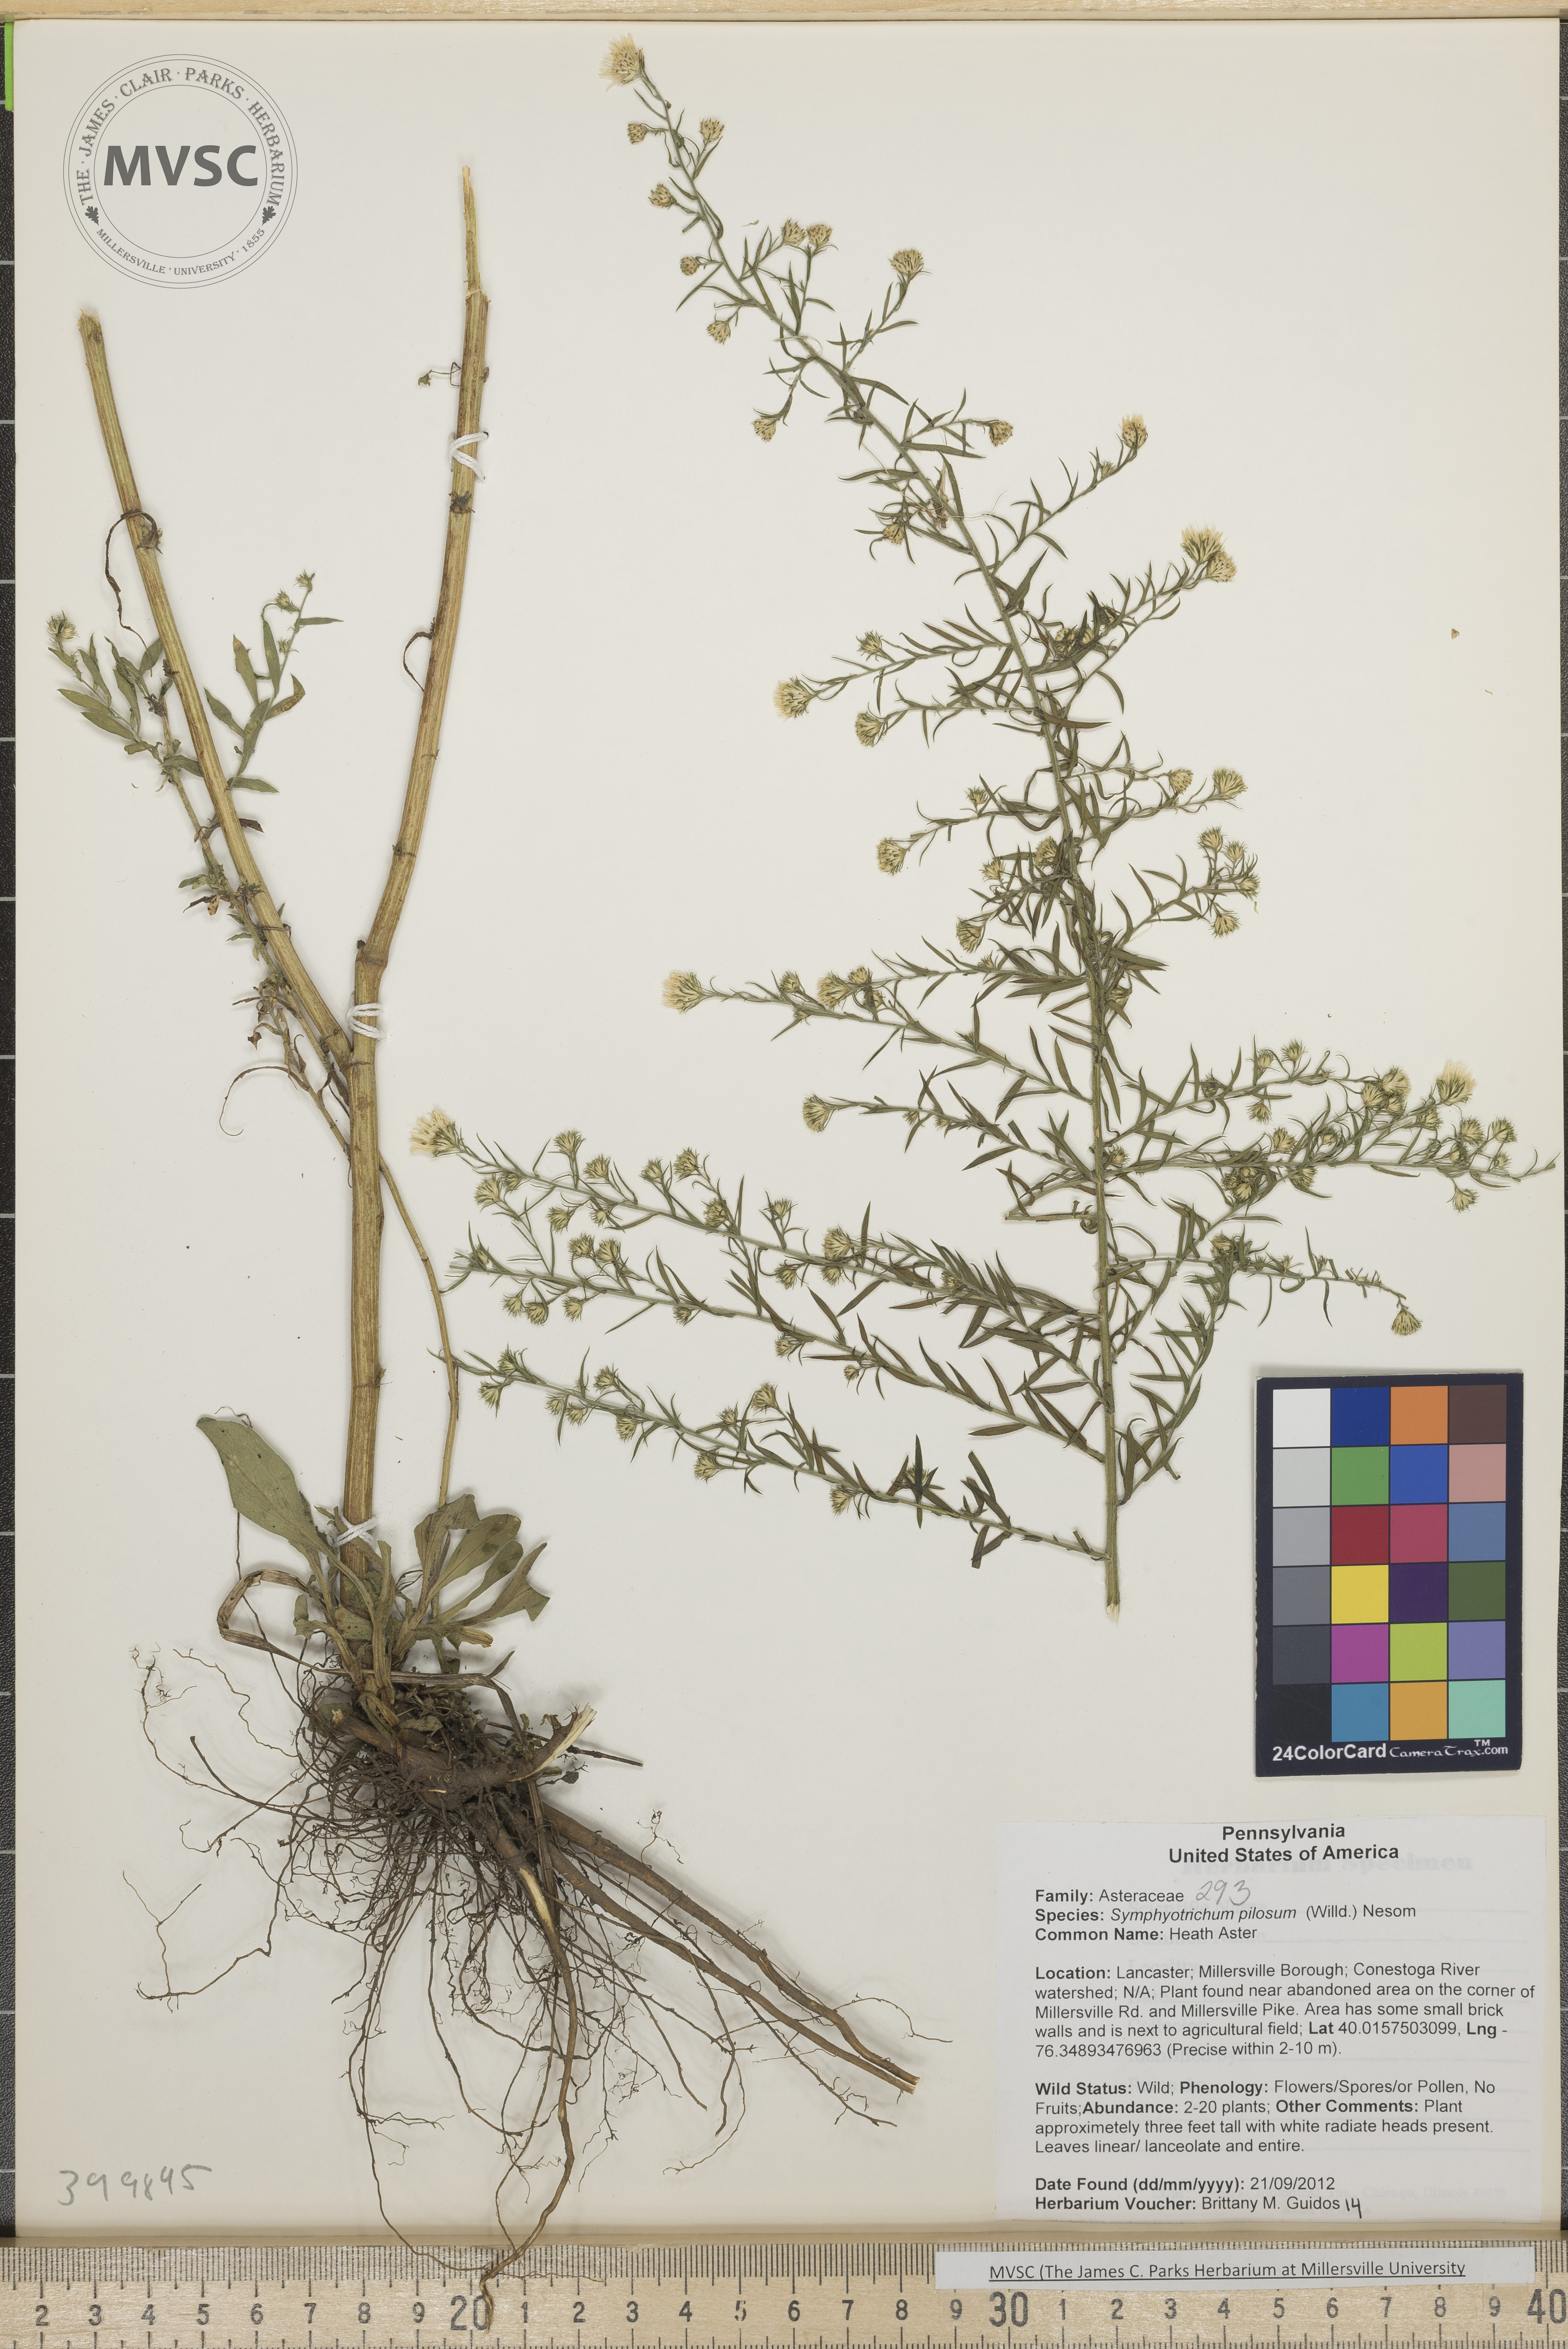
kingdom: Plantae
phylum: Tracheophyta
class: Magnoliopsida
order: Asterales
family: Asteraceae
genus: Symphyotrichum
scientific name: Symphyotrichum pilosum
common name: Heath Aster
